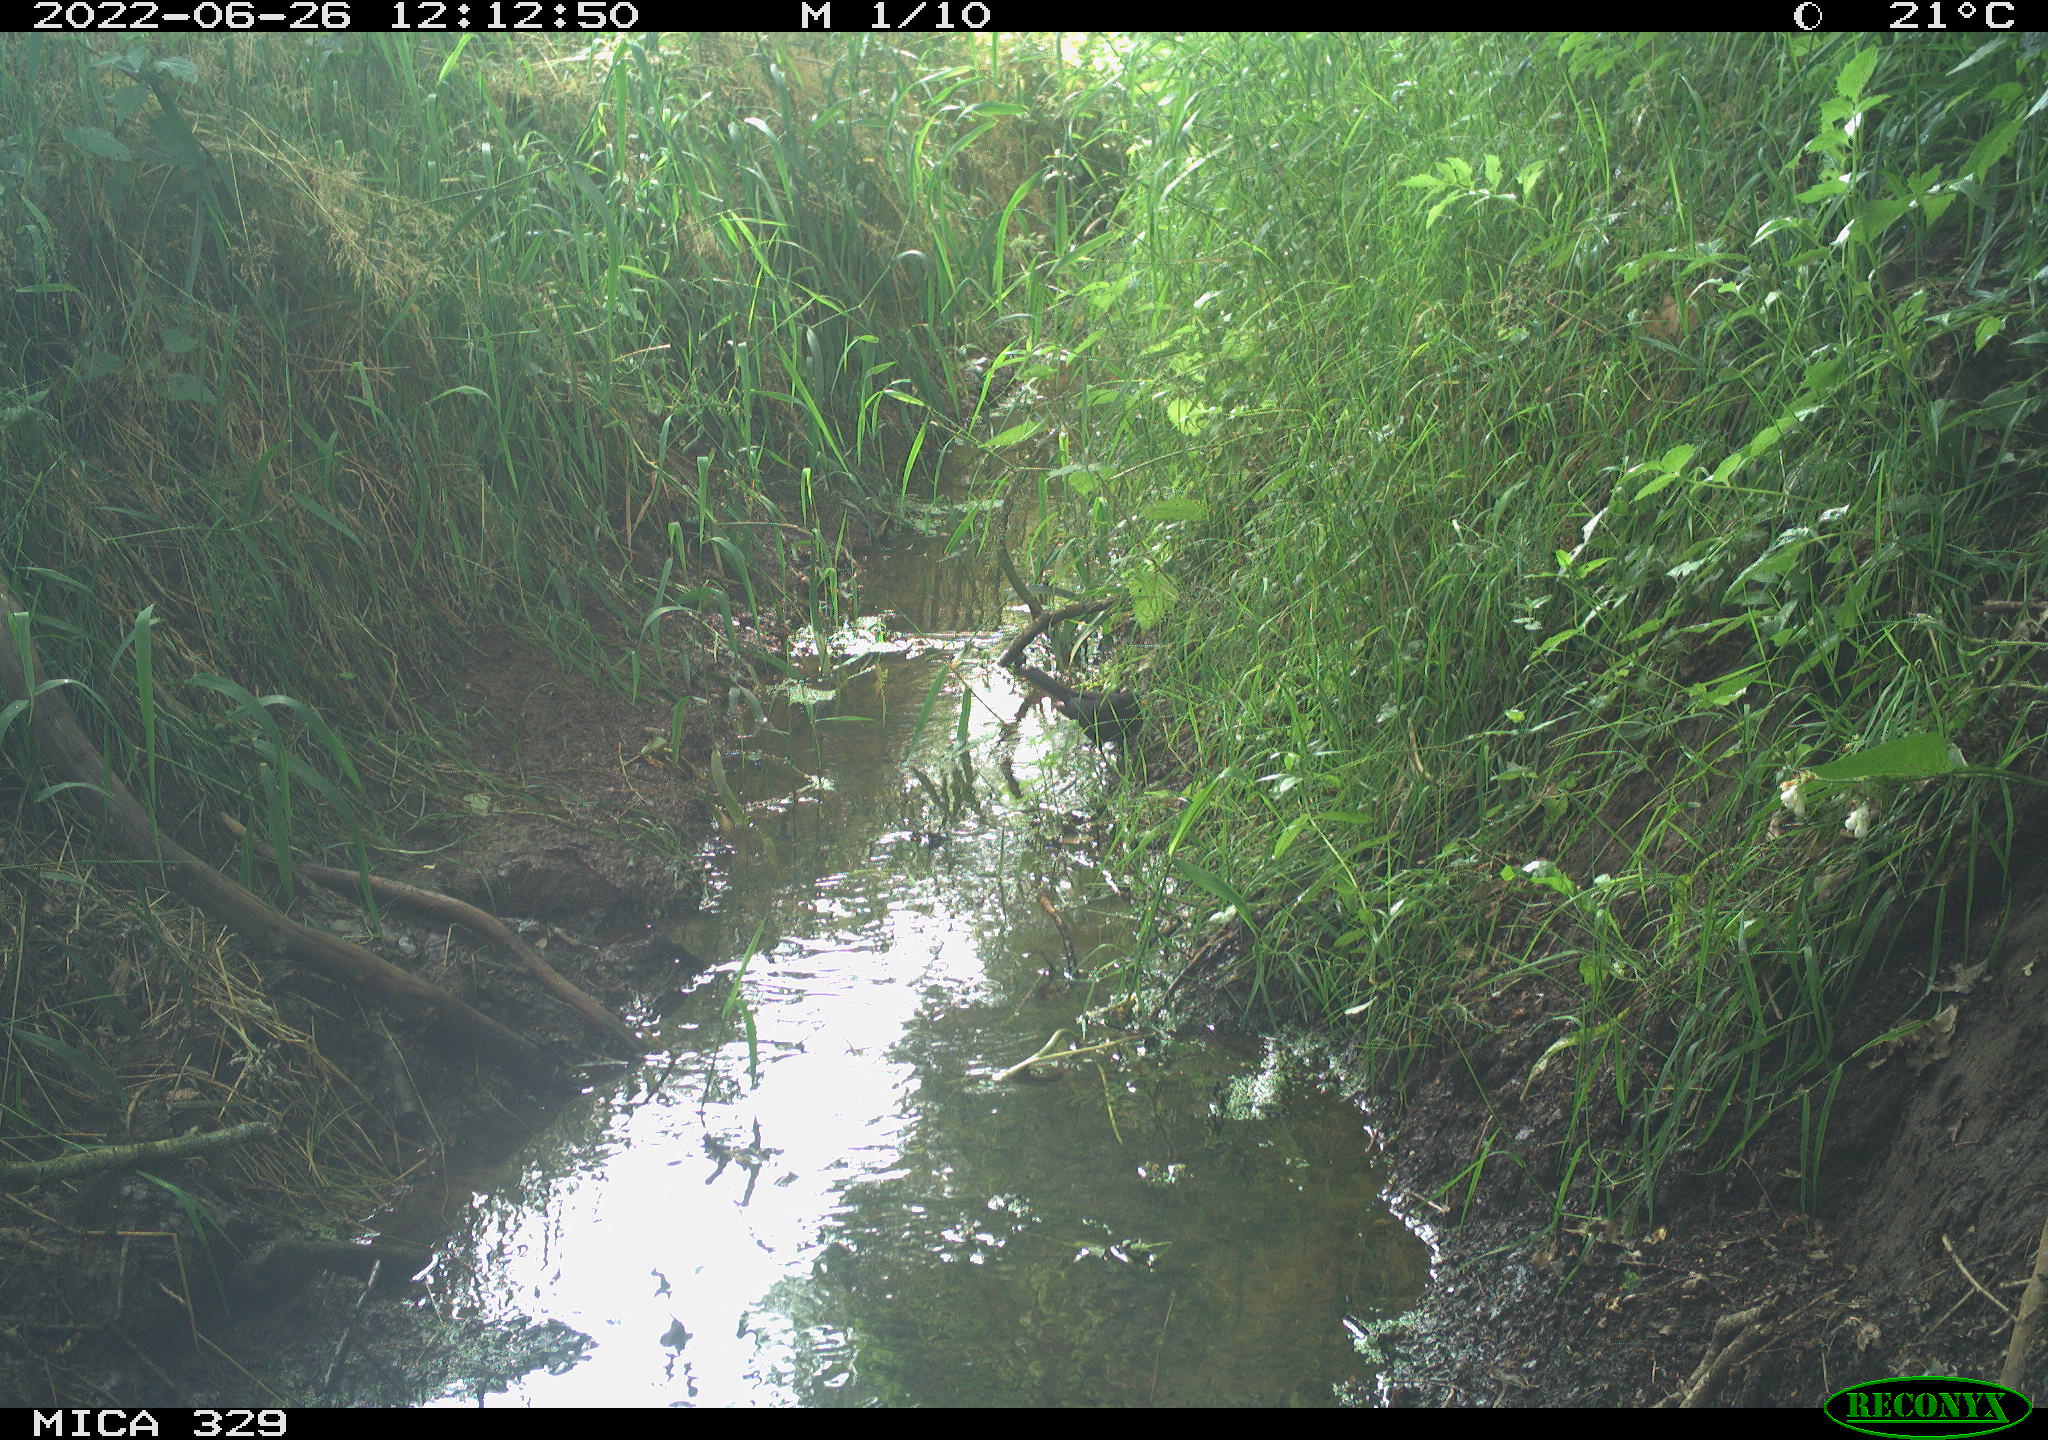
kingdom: Animalia
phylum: Chordata
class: Aves
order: Passeriformes
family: Turdidae
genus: Turdus
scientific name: Turdus merula
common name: Common blackbird
